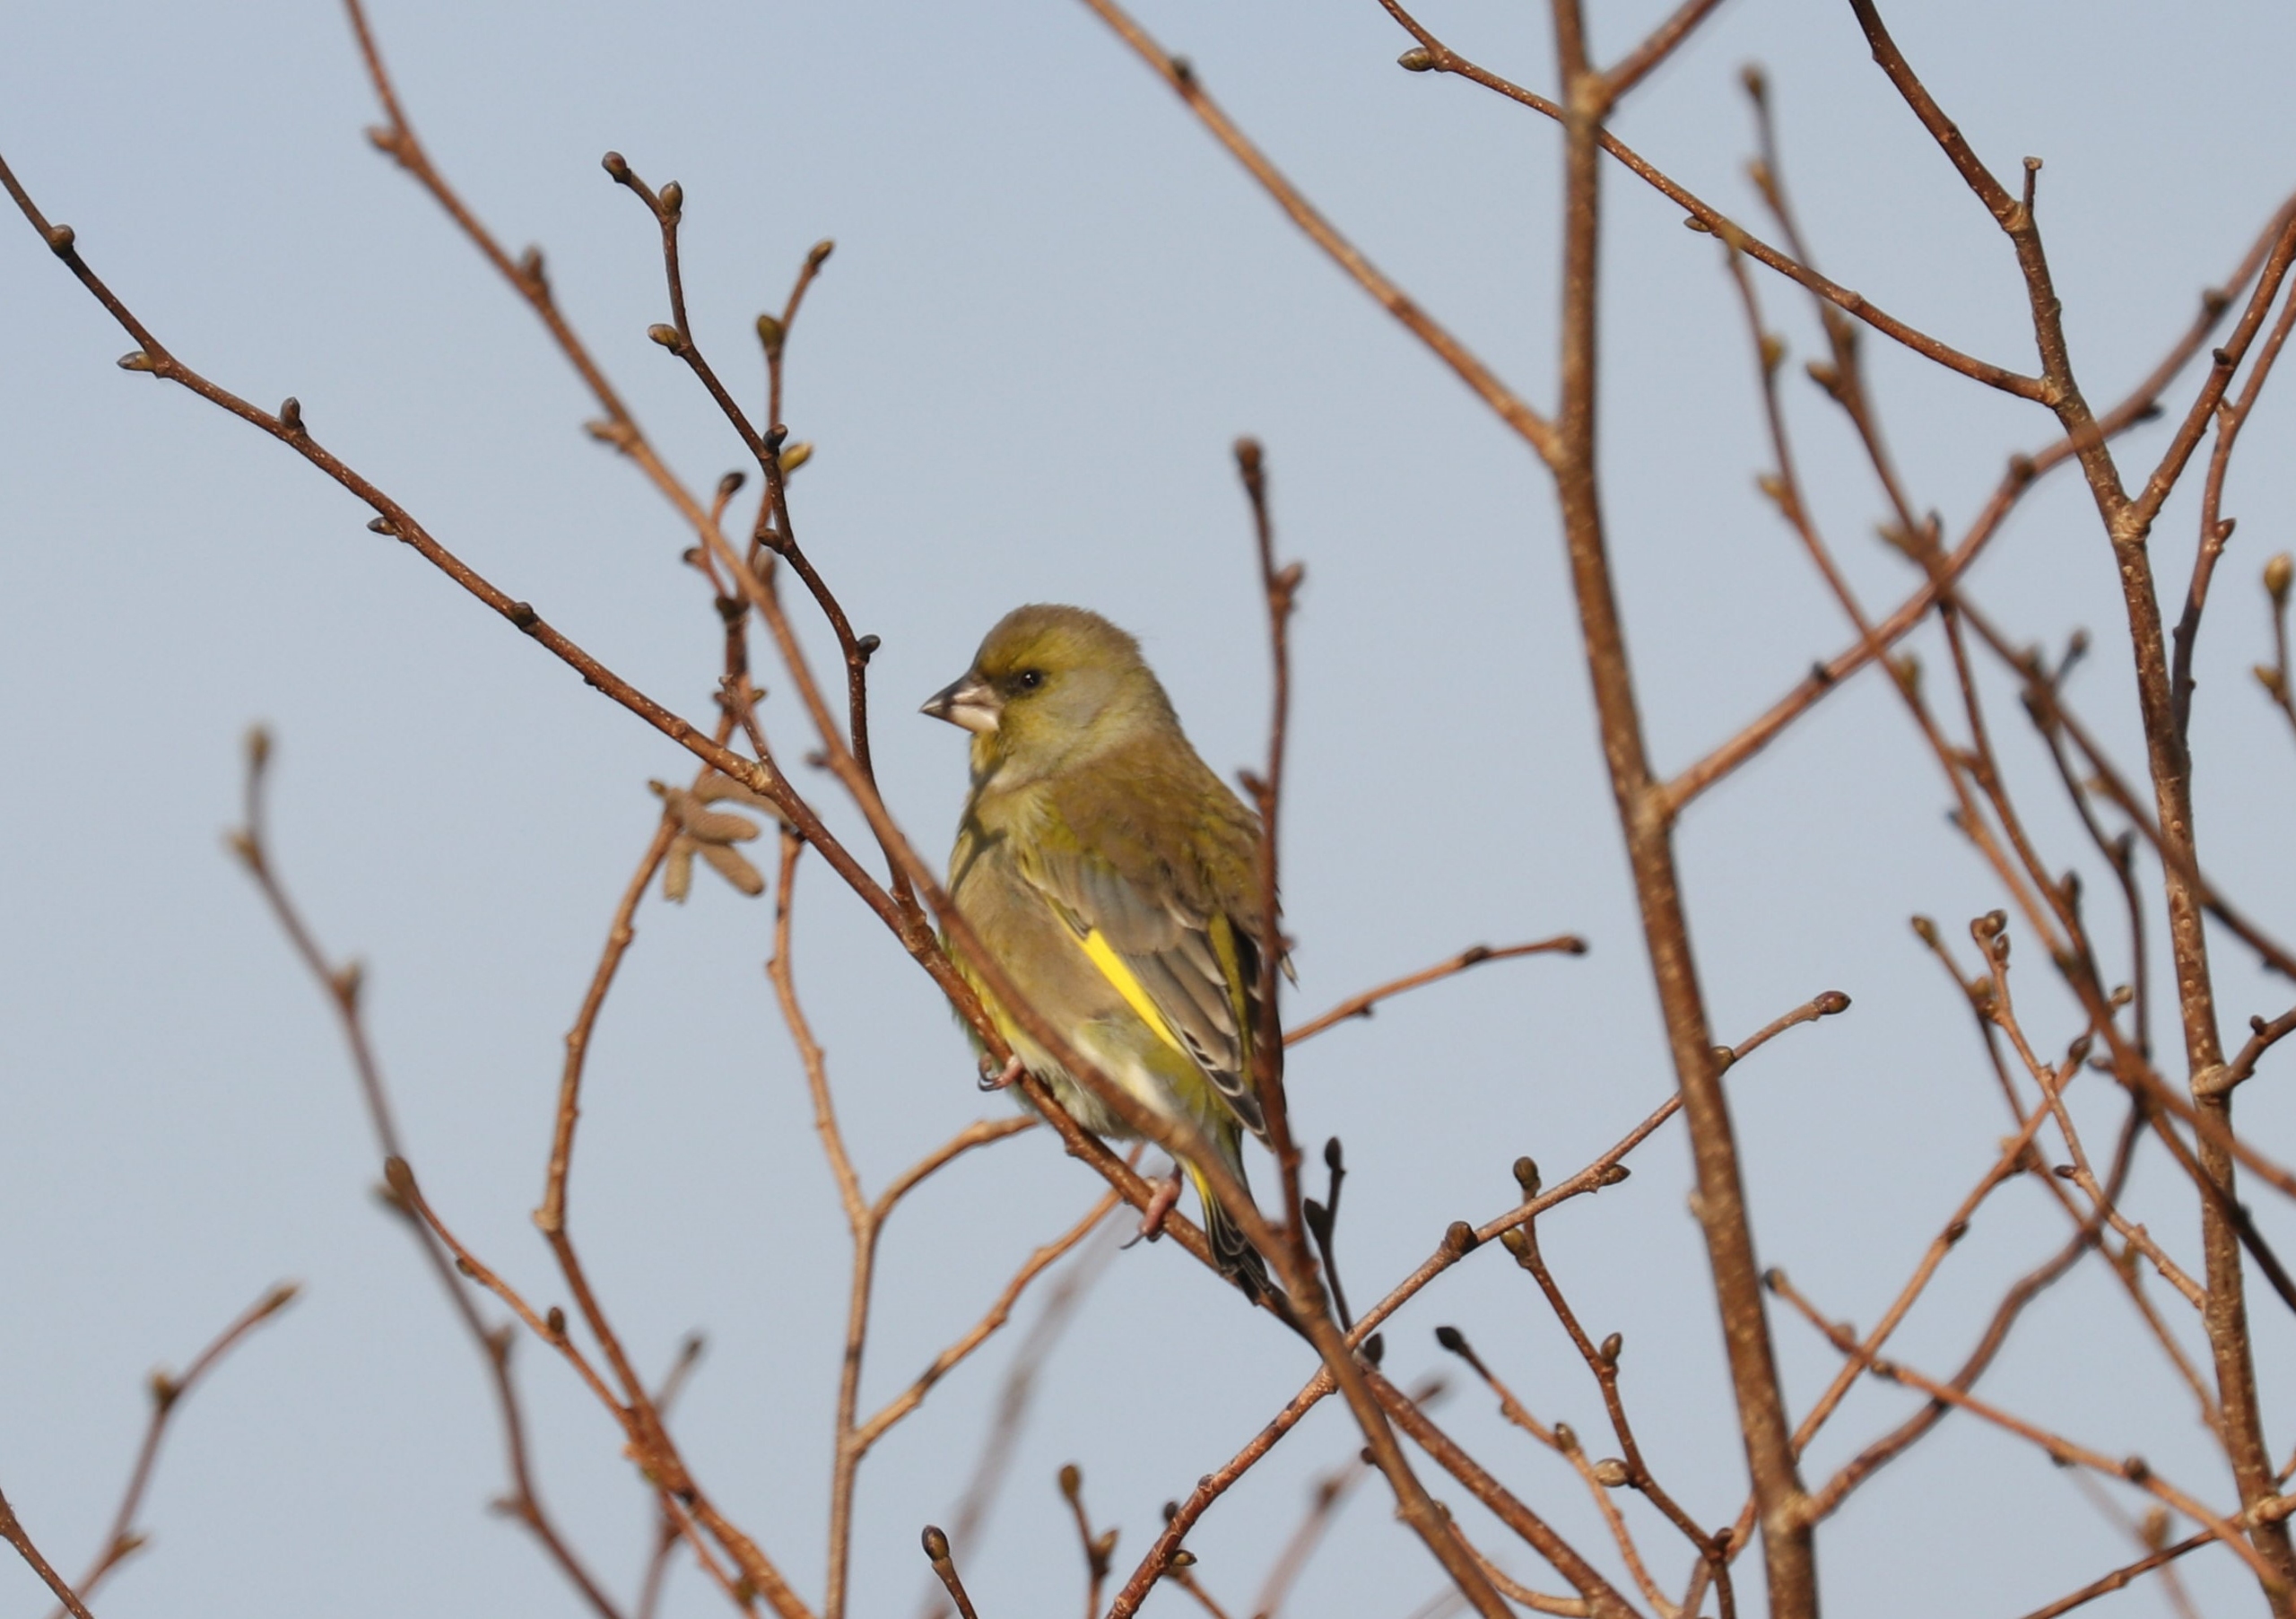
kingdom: Plantae
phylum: Tracheophyta
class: Liliopsida
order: Poales
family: Poaceae
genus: Chloris
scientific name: Chloris chloris
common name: Grønirisk
